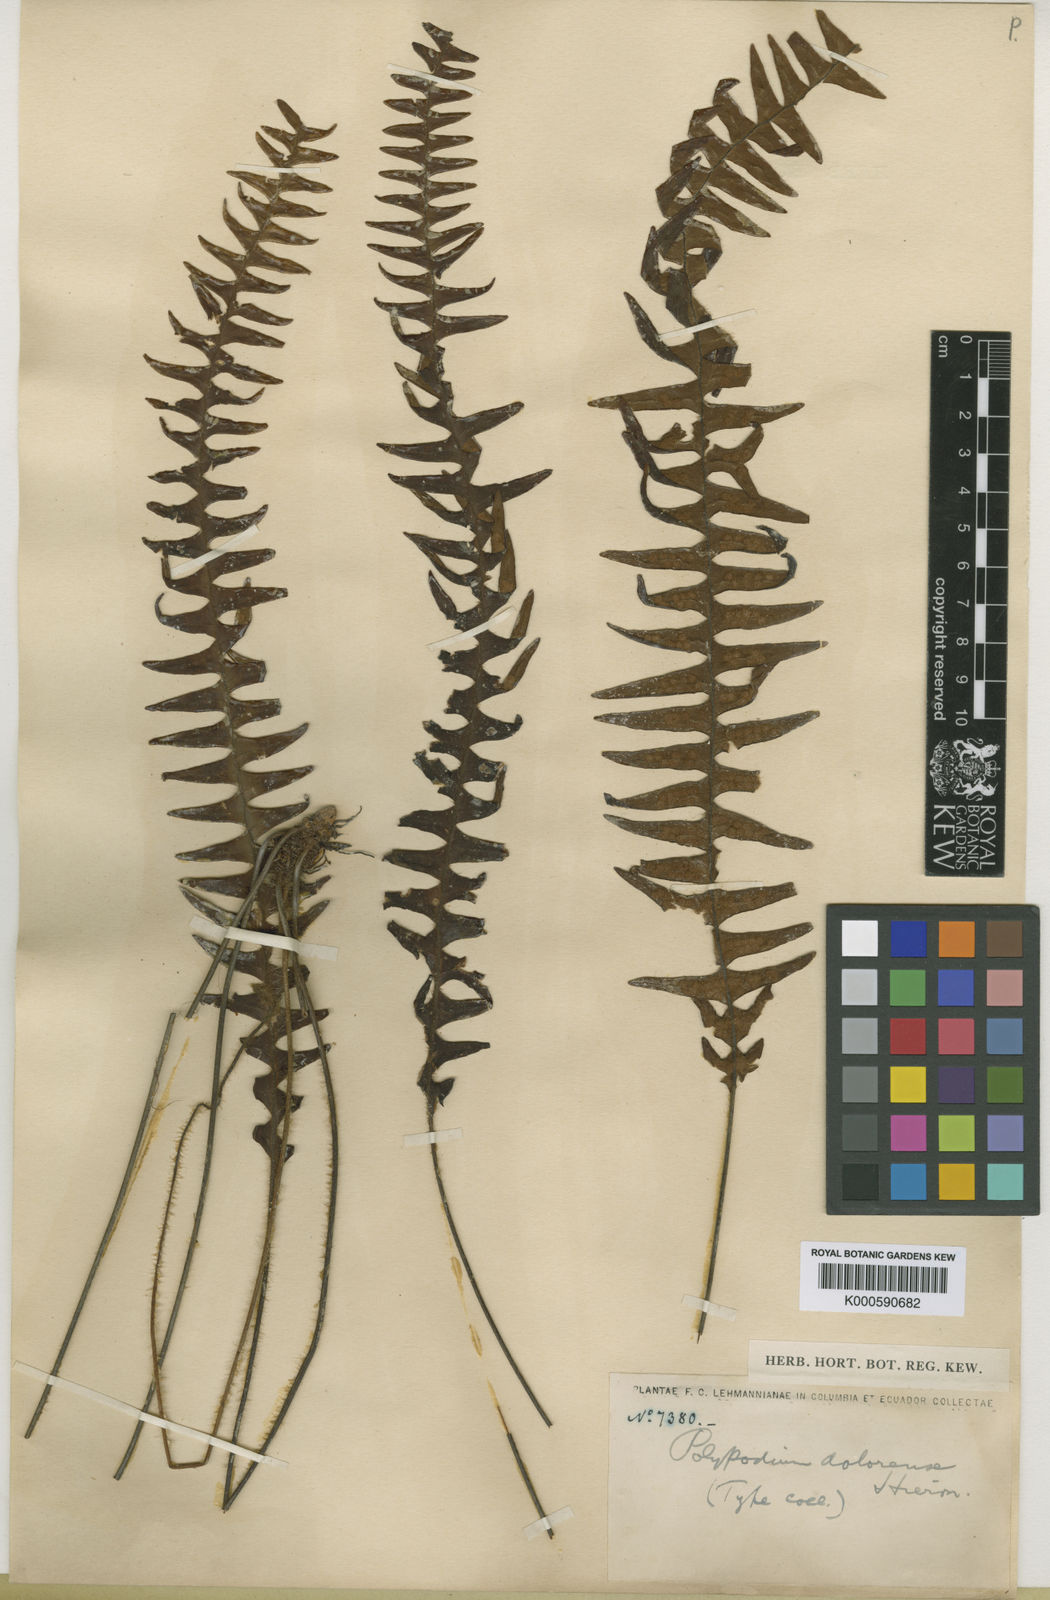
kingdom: Plantae
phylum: Tracheophyta
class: Polypodiopsida
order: Polypodiales
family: Polypodiaceae
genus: Terpsichore
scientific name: Terpsichore dolorensis
